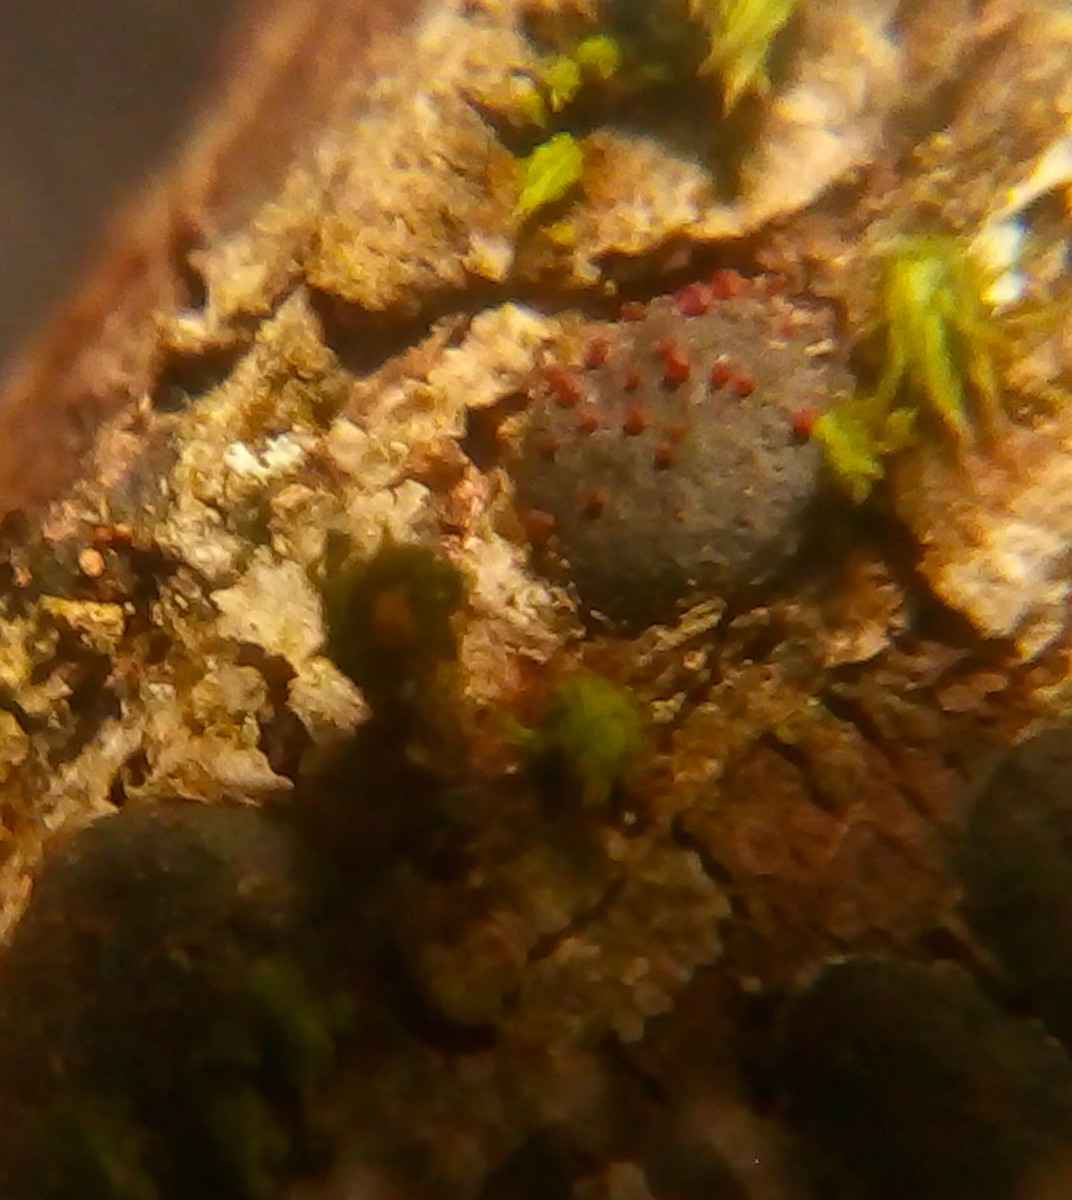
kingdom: Fungi
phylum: Ascomycota
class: Sordariomycetes
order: Hypocreales
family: Nectriaceae
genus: Dialonectria
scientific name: Dialonectria diatrypicola
